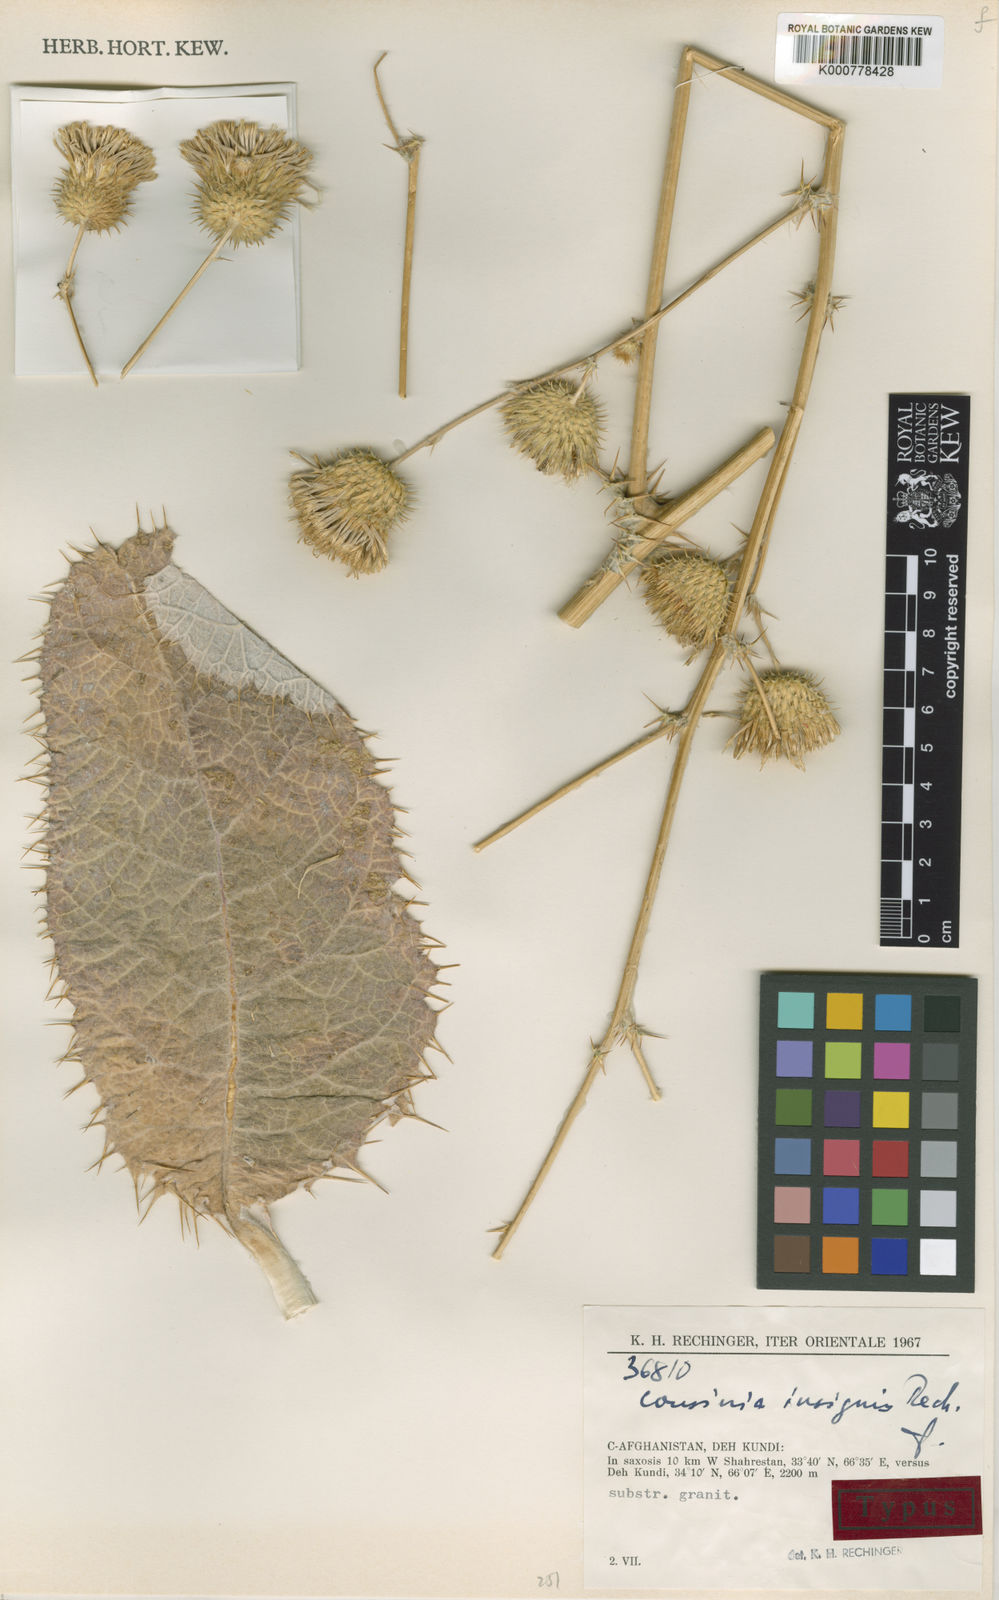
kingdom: Plantae
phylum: Tracheophyta
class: Magnoliopsida
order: Asterales
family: Asteraceae
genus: Cousinia
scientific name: Cousinia insignis
